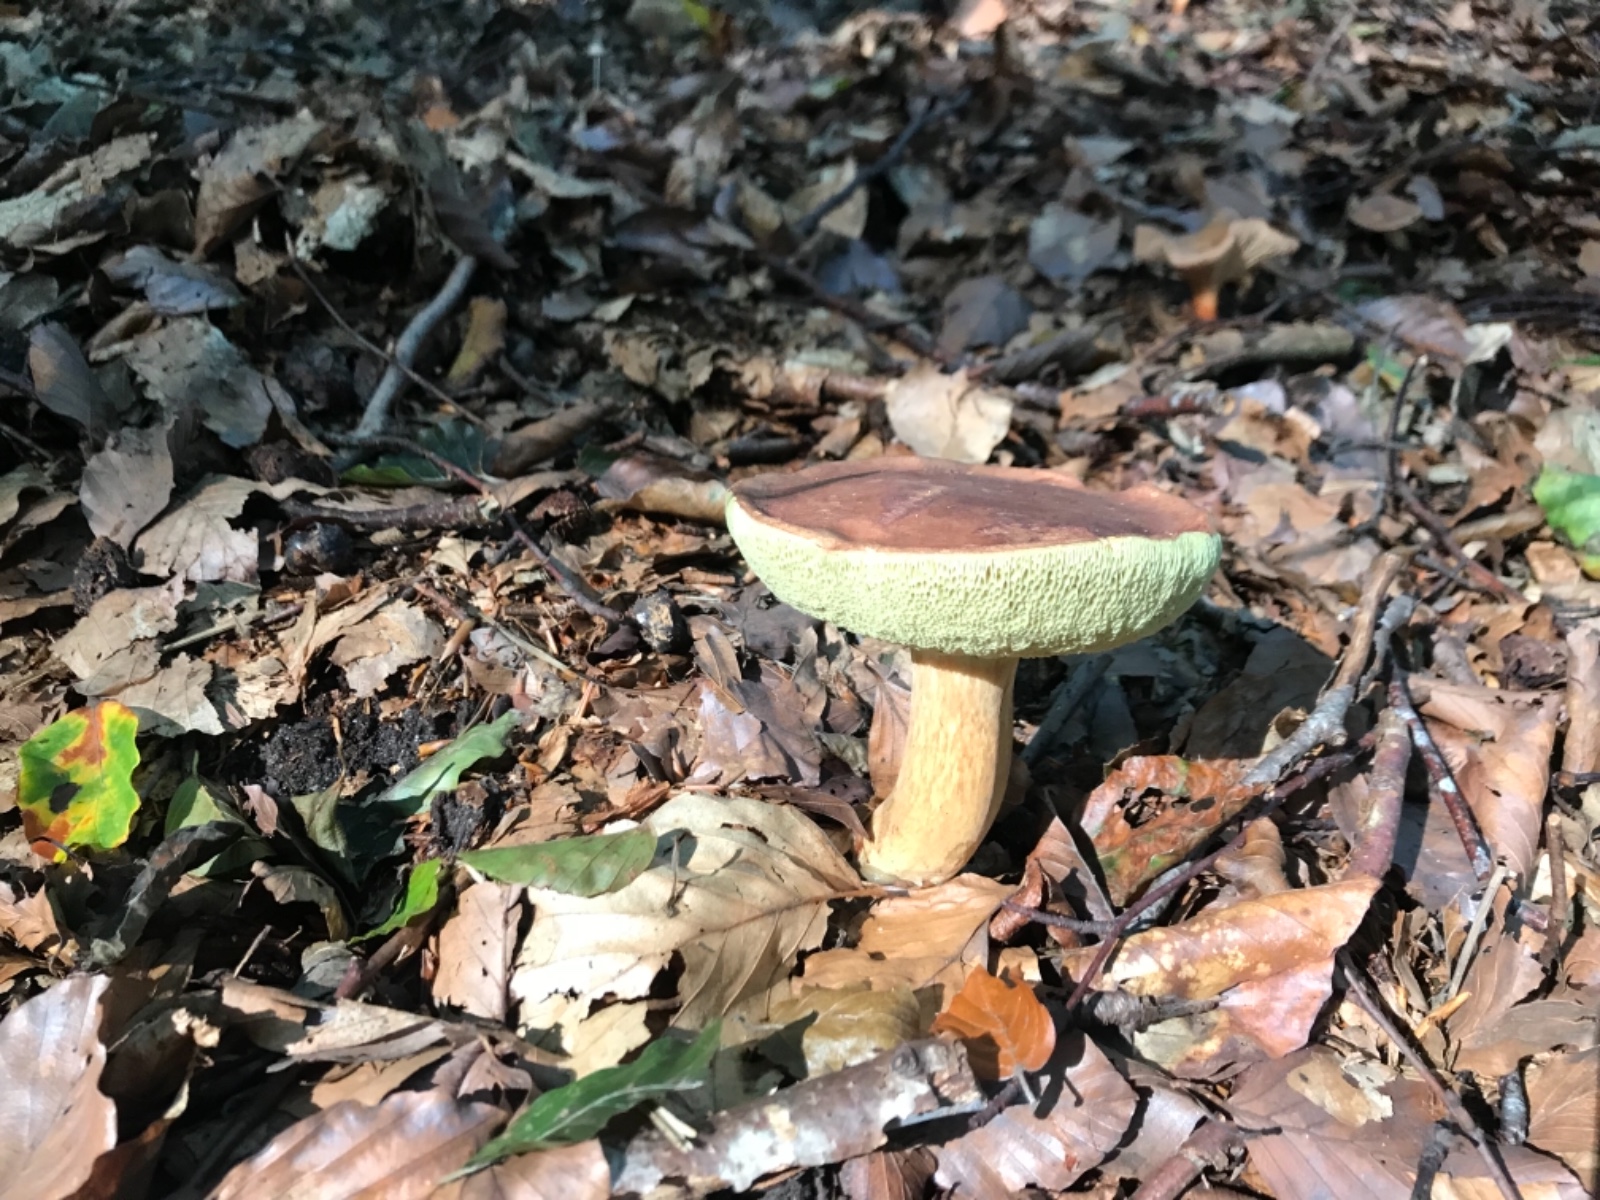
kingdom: Fungi
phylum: Basidiomycota
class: Agaricomycetes
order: Boletales
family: Boletaceae
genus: Imleria
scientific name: Imleria badia
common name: brunstokket rørhat
